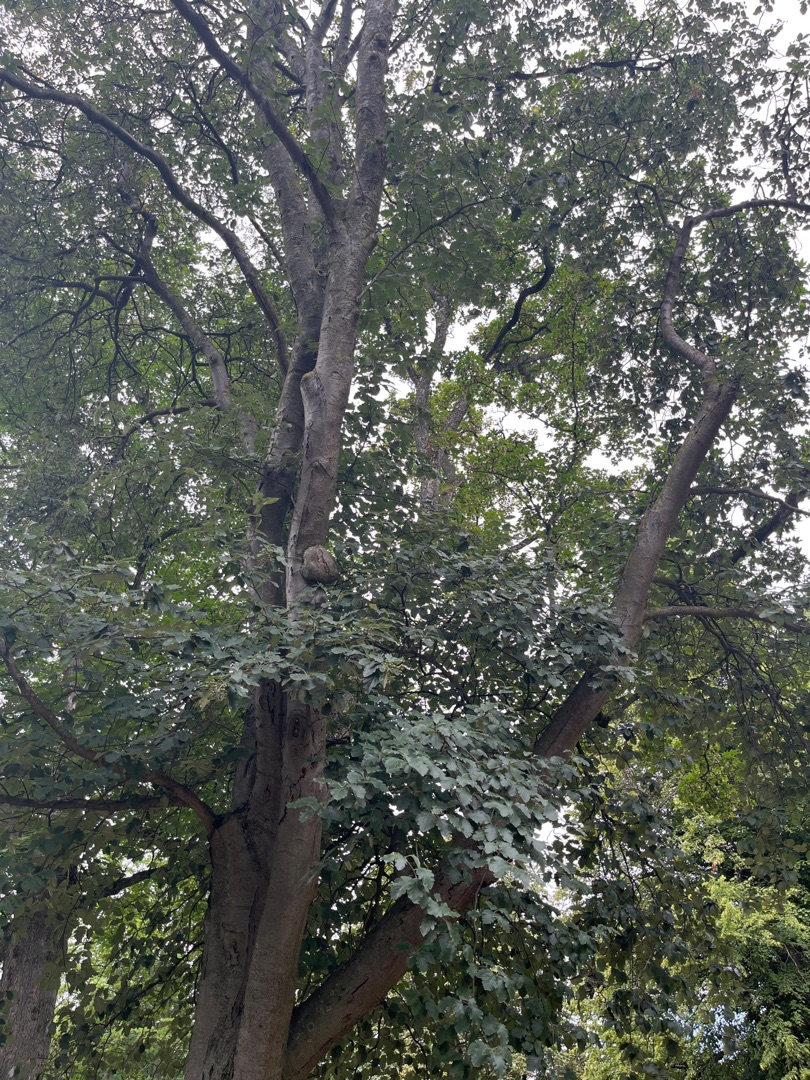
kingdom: Plantae
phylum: Tracheophyta
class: Magnoliopsida
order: Rosales
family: Rosaceae
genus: Scandosorbus
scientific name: Scandosorbus intermedia
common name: Selje-røn
